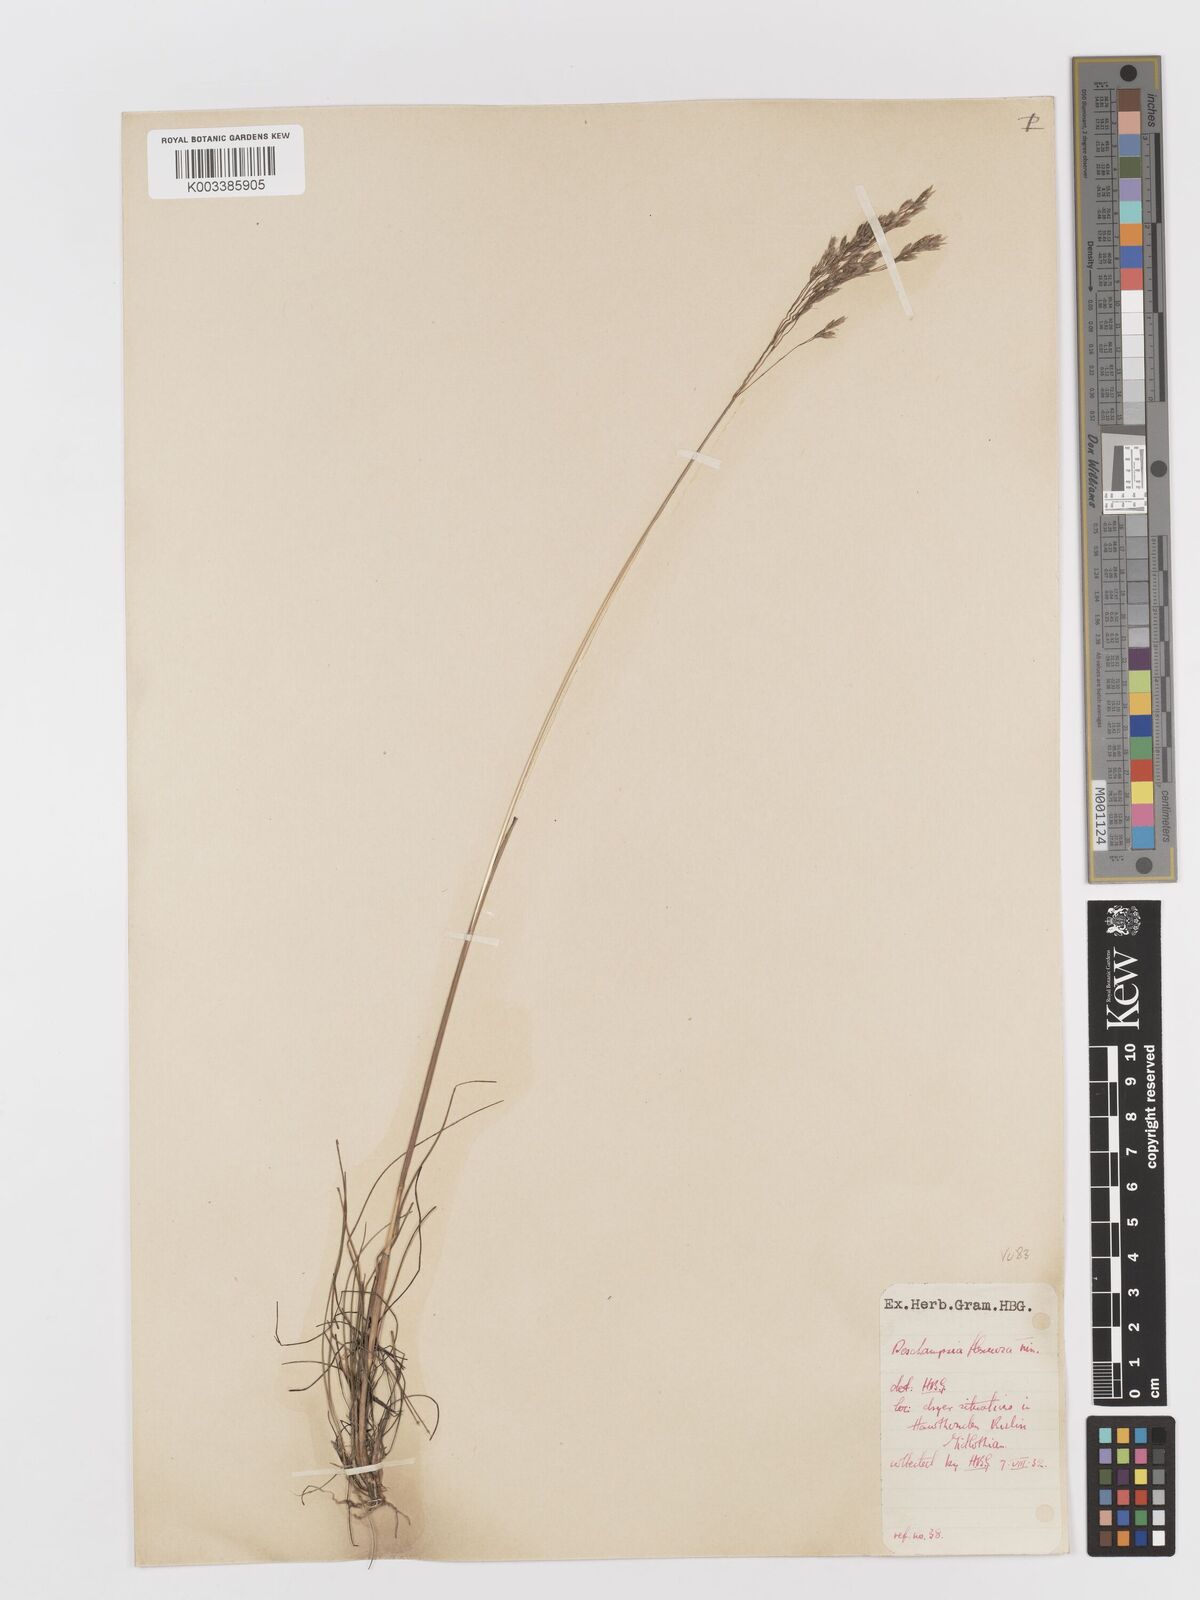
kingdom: Plantae
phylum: Tracheophyta
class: Liliopsida
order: Poales
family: Poaceae
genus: Avenella
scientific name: Avenella flexuosa
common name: Wavy hairgrass
